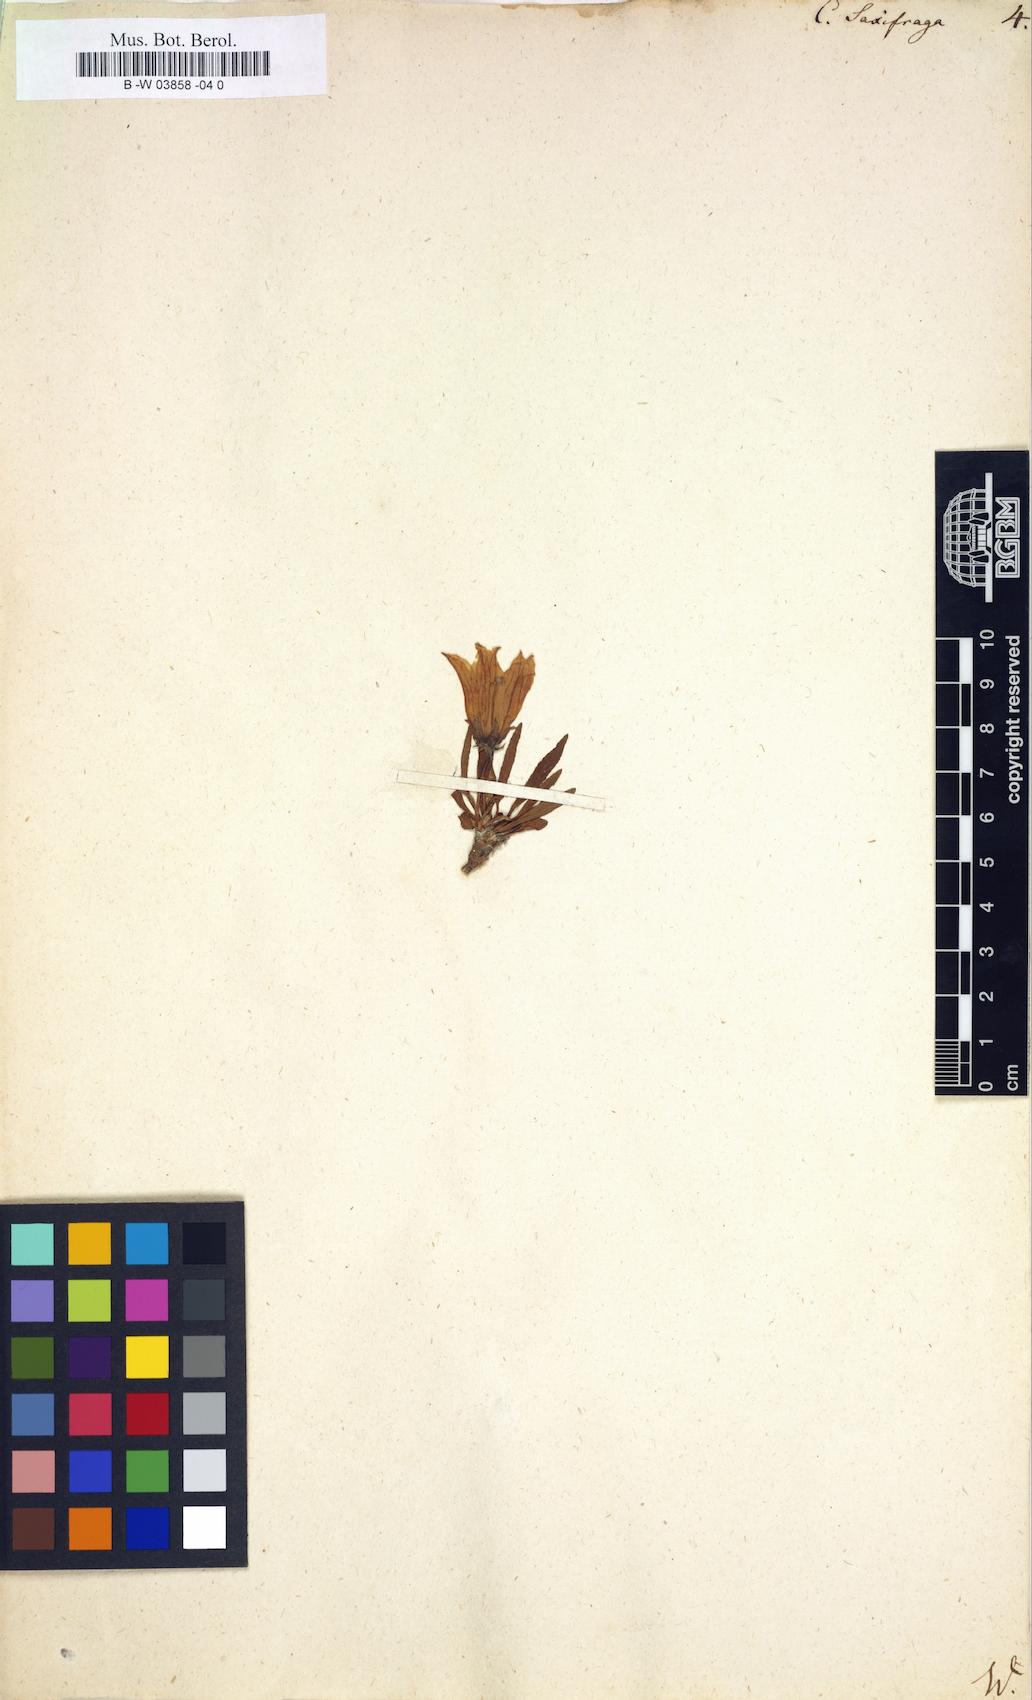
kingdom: Plantae
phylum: Tracheophyta
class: Magnoliopsida
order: Asterales
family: Campanulaceae
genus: Campanula
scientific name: Campanula saxifraga
